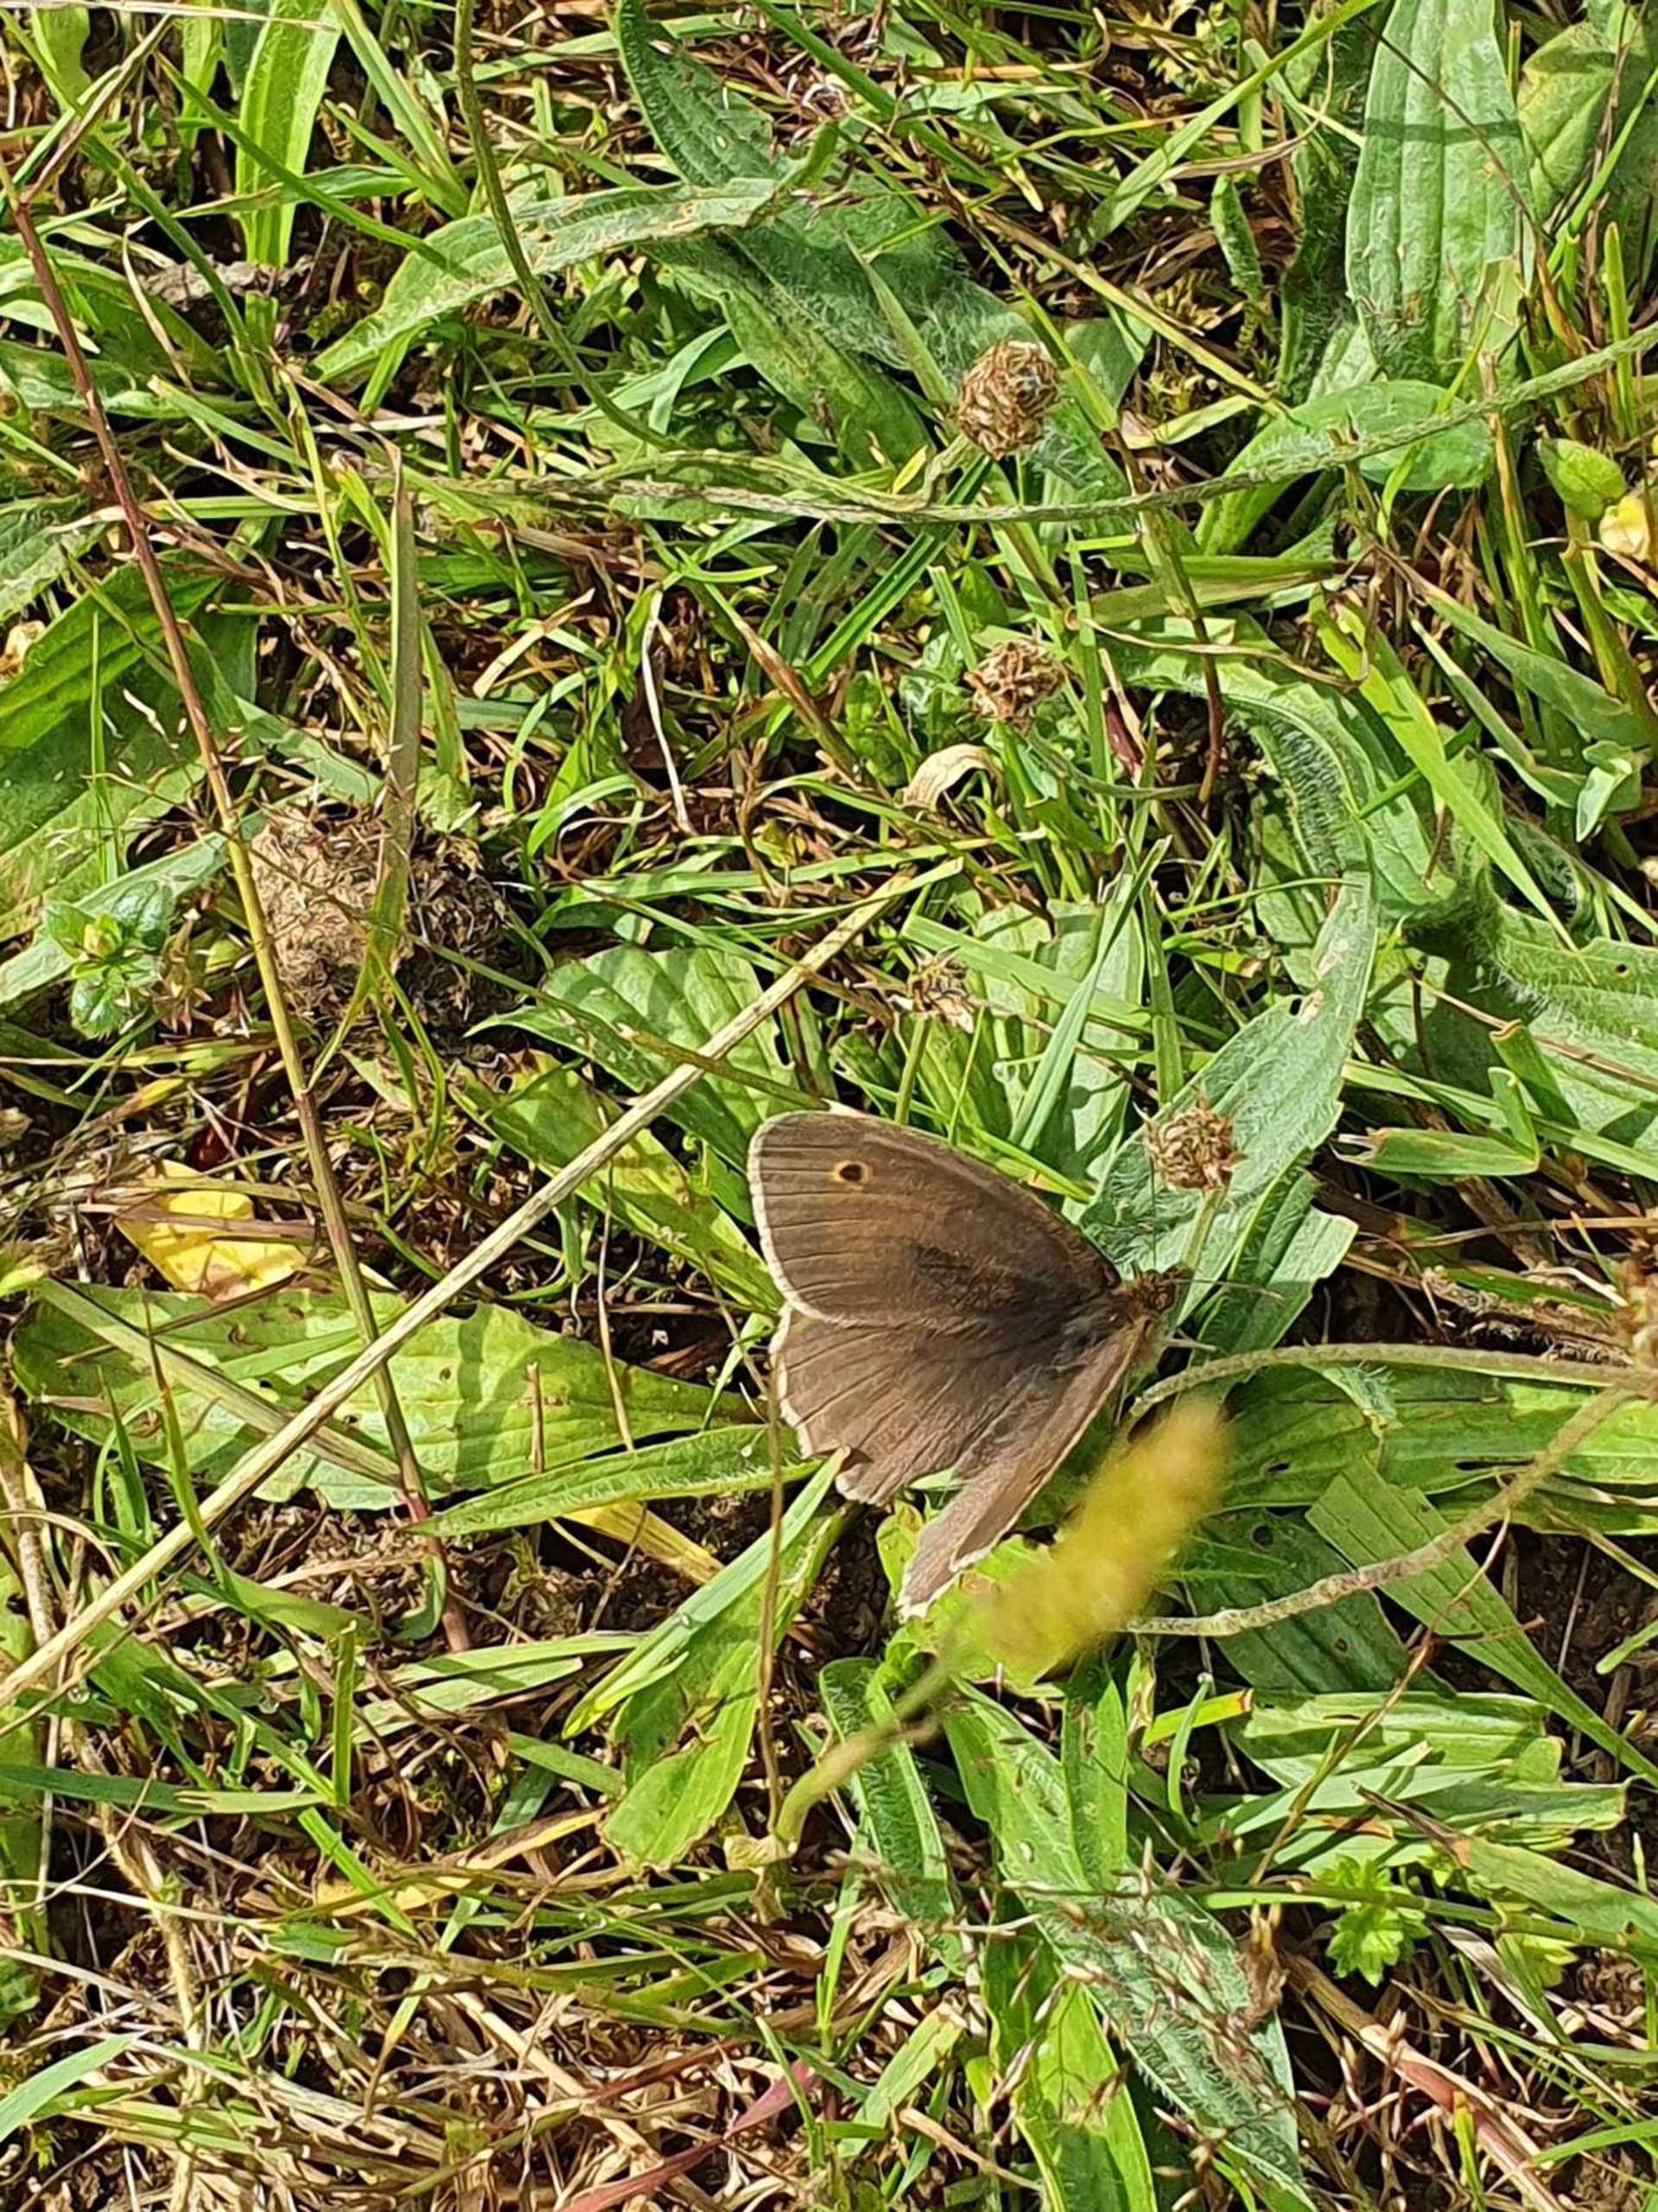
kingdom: Animalia
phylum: Arthropoda
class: Insecta
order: Lepidoptera
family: Nymphalidae
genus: Maniola
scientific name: Maniola jurtina
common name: Græsrandøje
